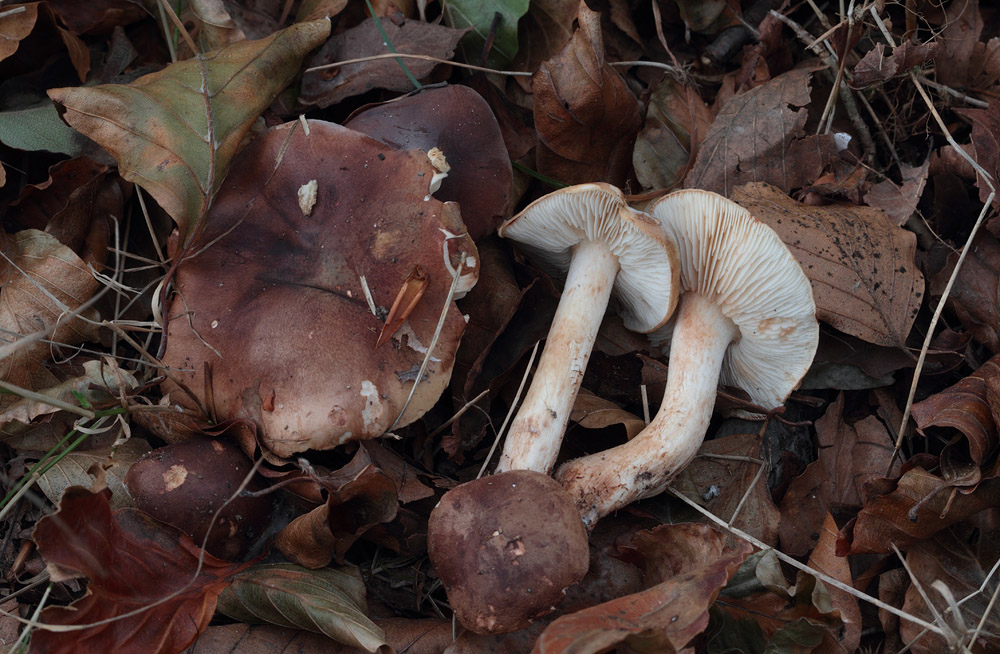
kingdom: Fungi
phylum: Basidiomycota
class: Agaricomycetes
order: Agaricales
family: Tricholomataceae
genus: Tricholoma
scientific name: Tricholoma ustale
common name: sveden ridderhat
